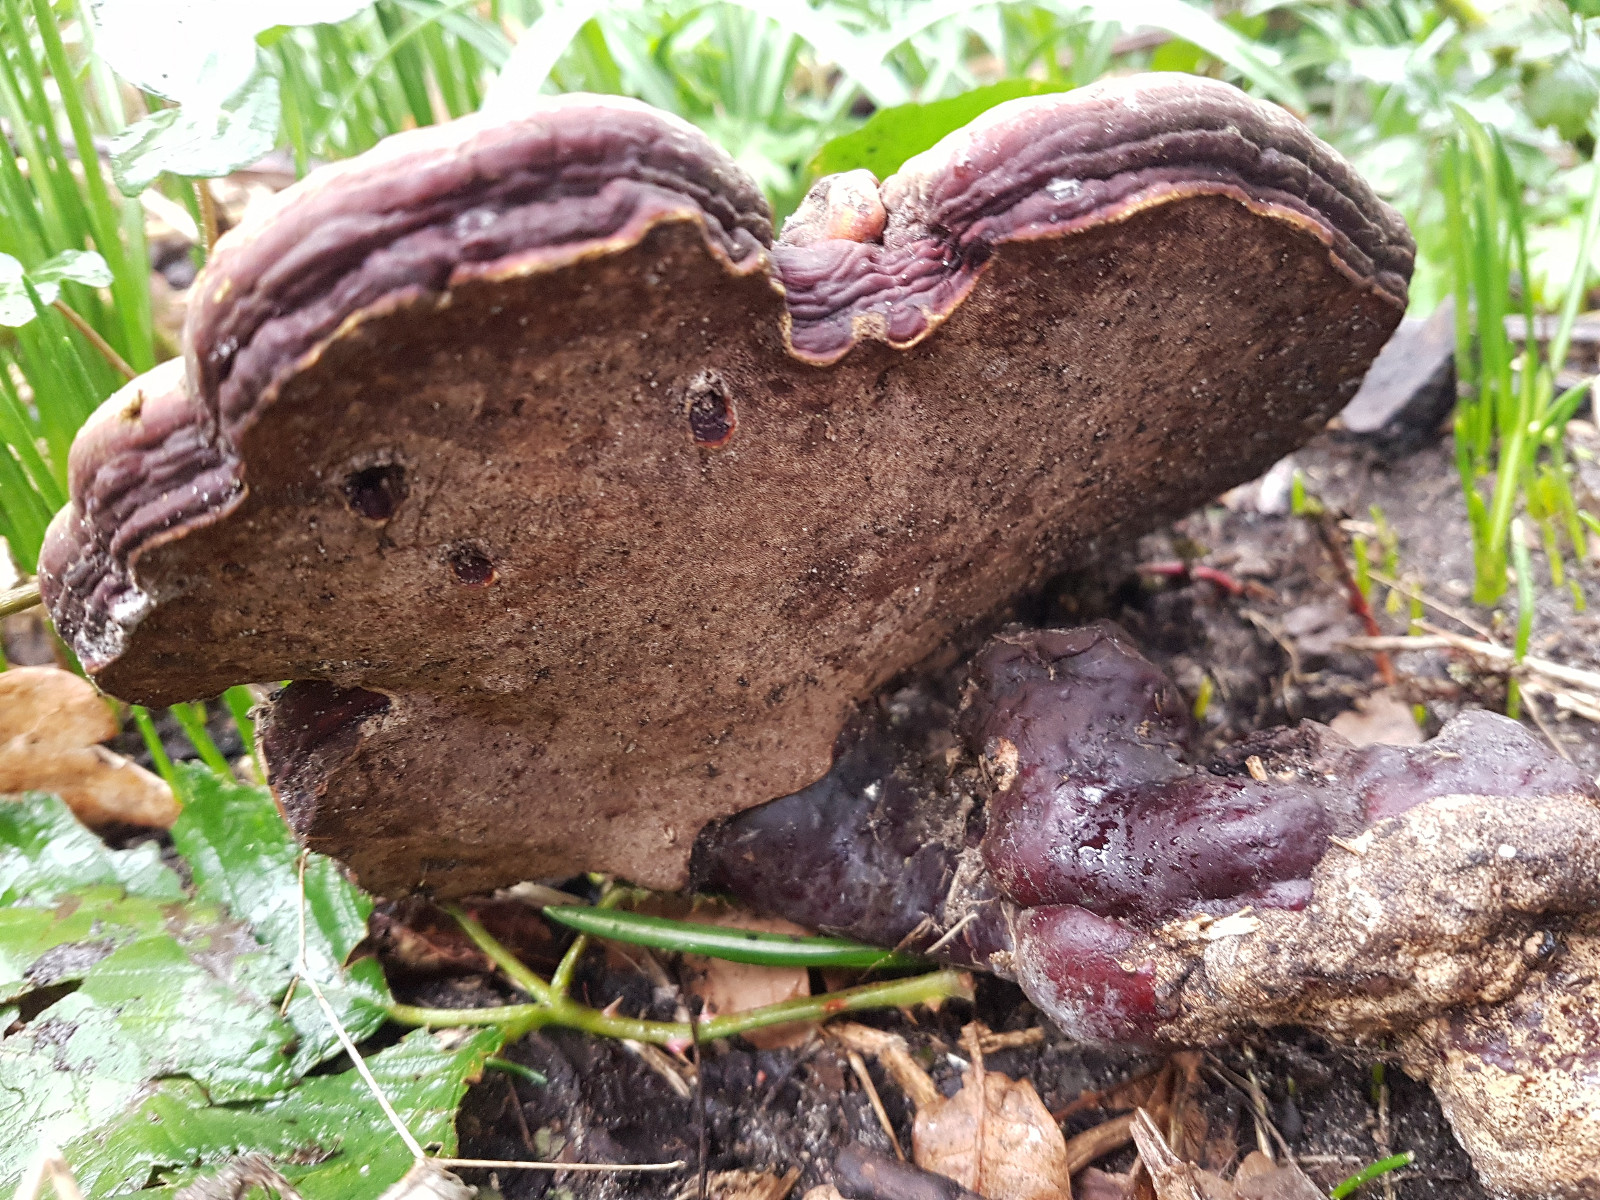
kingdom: Fungi
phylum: Basidiomycota
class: Agaricomycetes
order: Polyporales
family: Polyporaceae
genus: Ganoderma
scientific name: Ganoderma lucidum
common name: skinnende lakporesvamp
